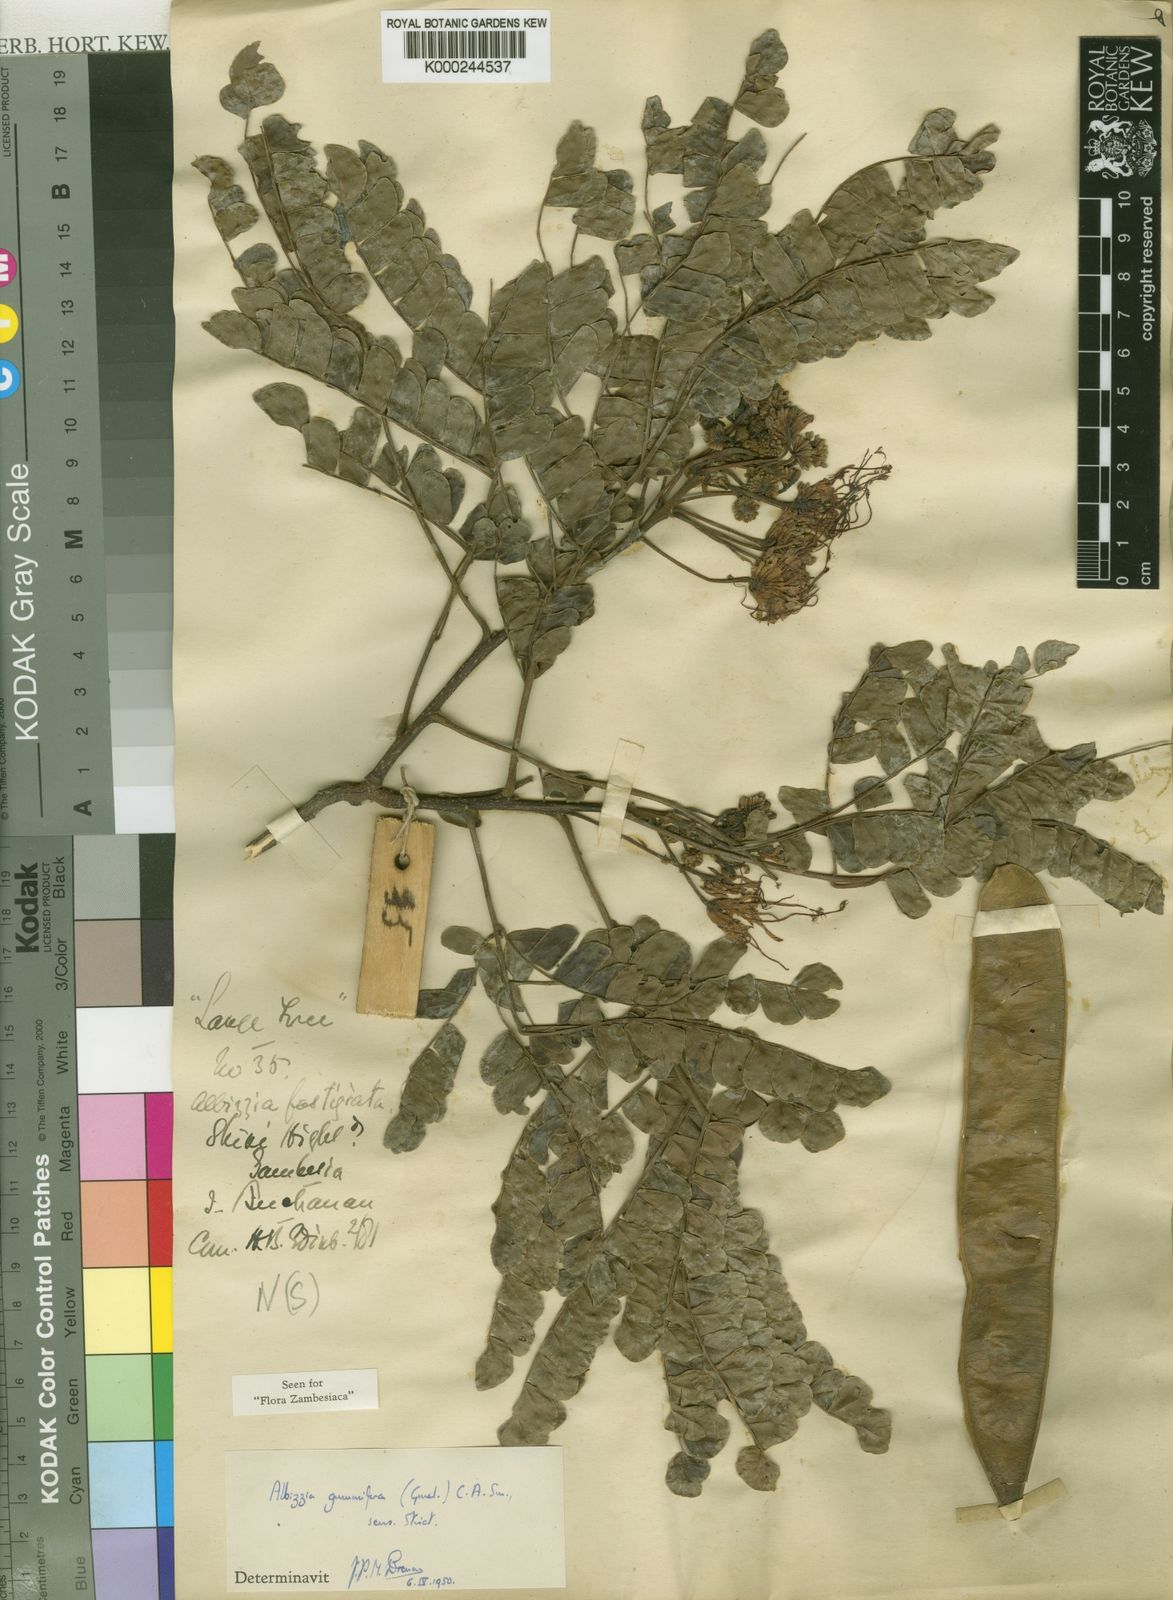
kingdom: Plantae
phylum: Tracheophyta
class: Magnoliopsida
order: Fabales
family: Fabaceae
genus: Albizia
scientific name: Albizia gummifera
